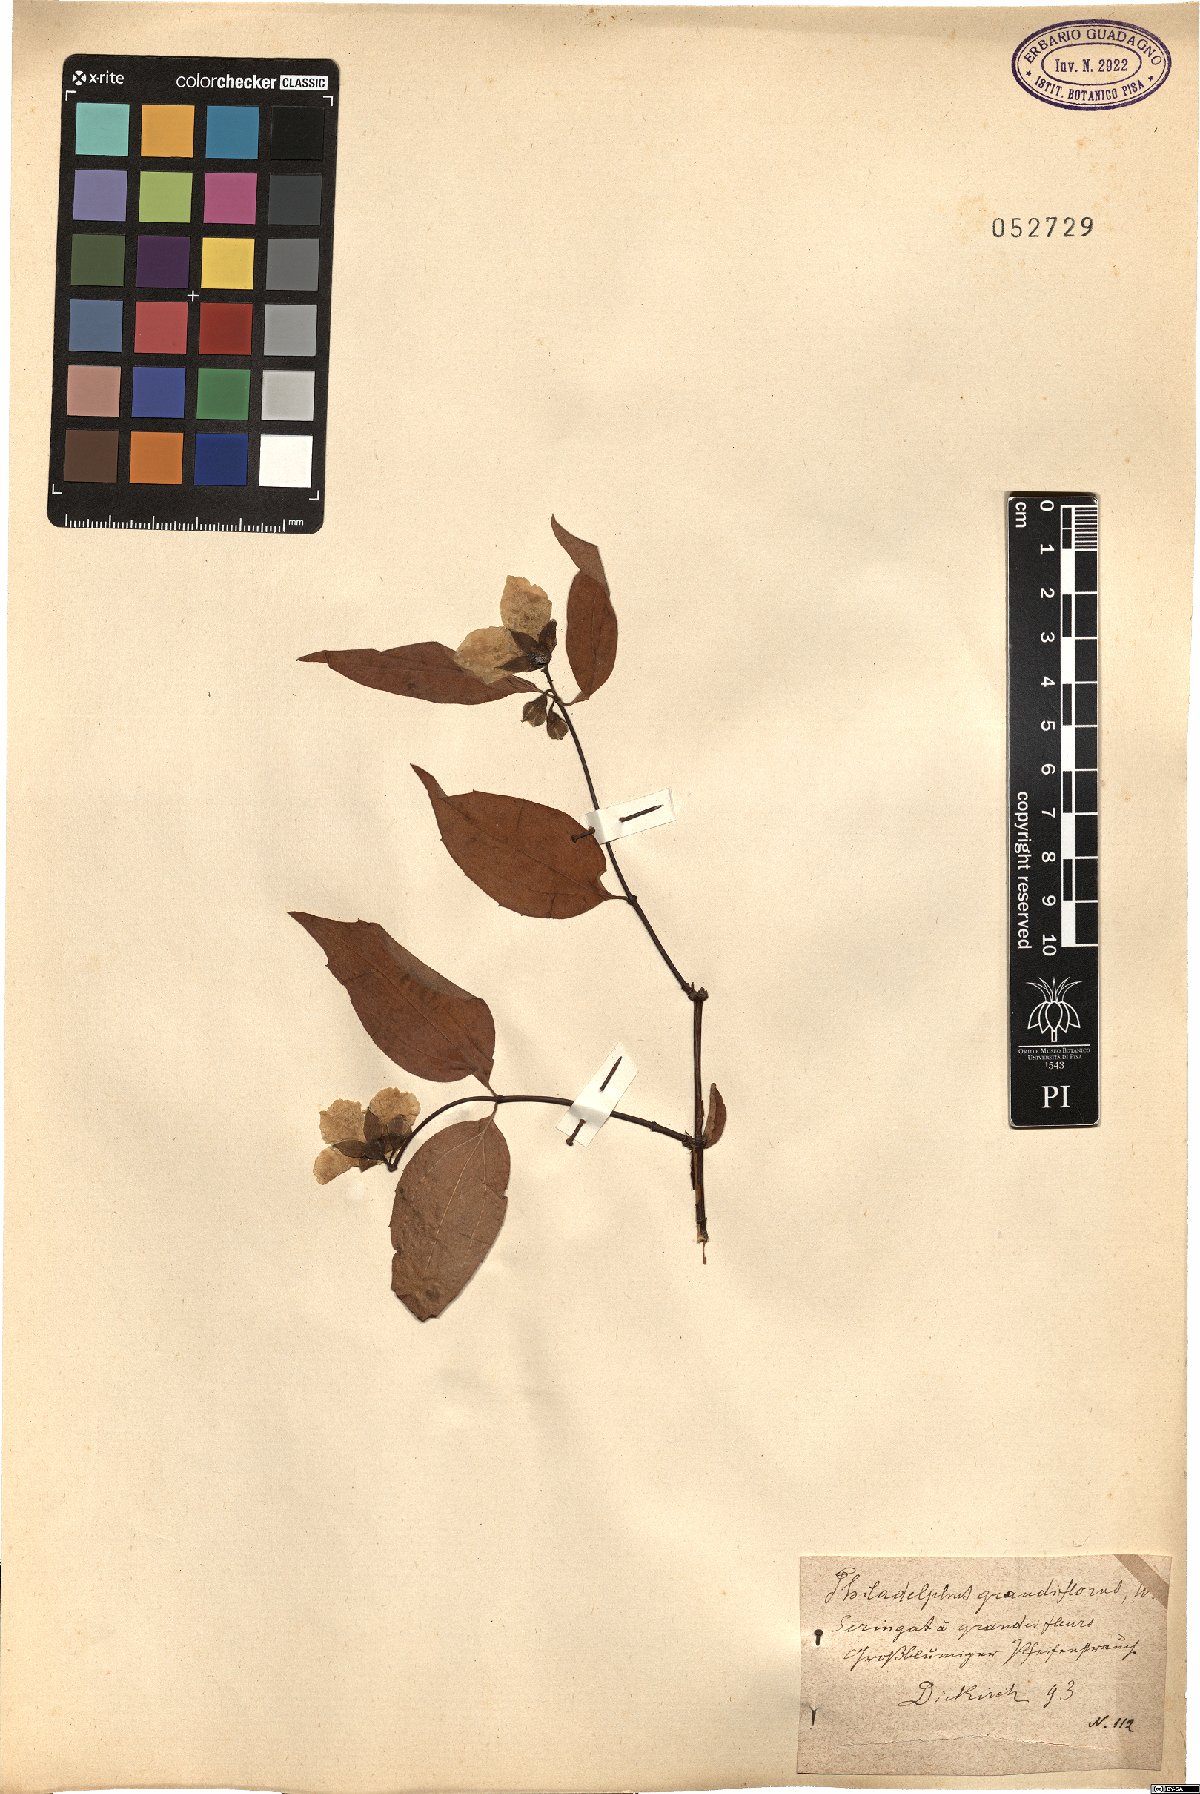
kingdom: Plantae
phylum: Tracheophyta
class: Magnoliopsida
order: Cornales
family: Hydrangeaceae
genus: Philadelphus
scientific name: Philadelphus inodorus
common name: Scentless mock-orange
